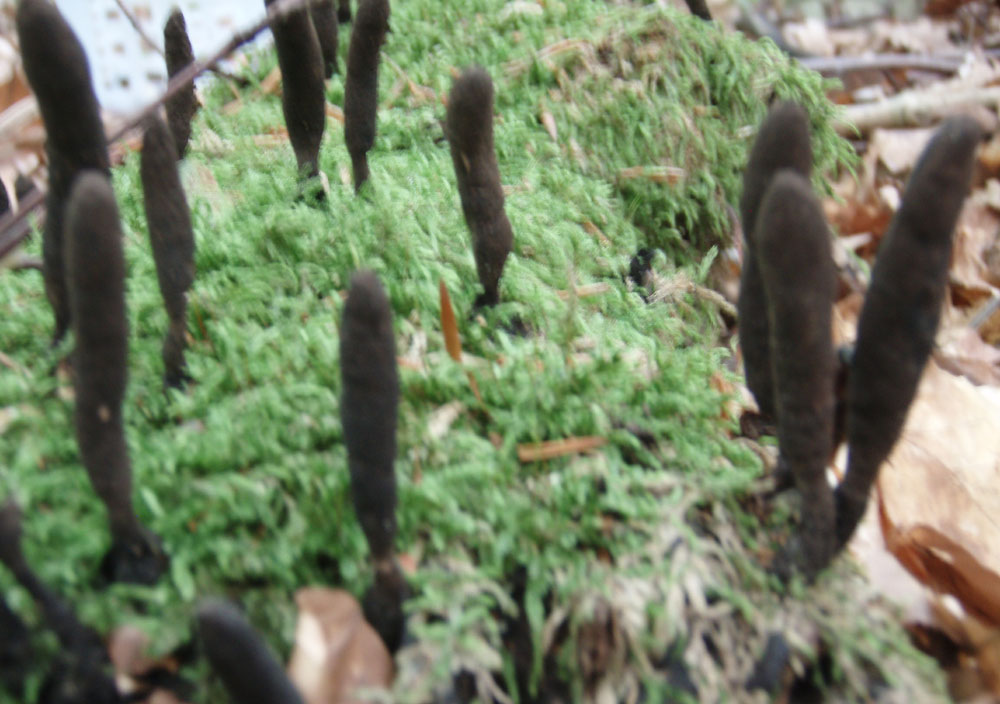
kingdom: Fungi
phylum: Ascomycota
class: Sordariomycetes
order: Xylariales
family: Xylariaceae
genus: Xylaria
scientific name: Xylaria longipes
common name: slank stødsvamp
